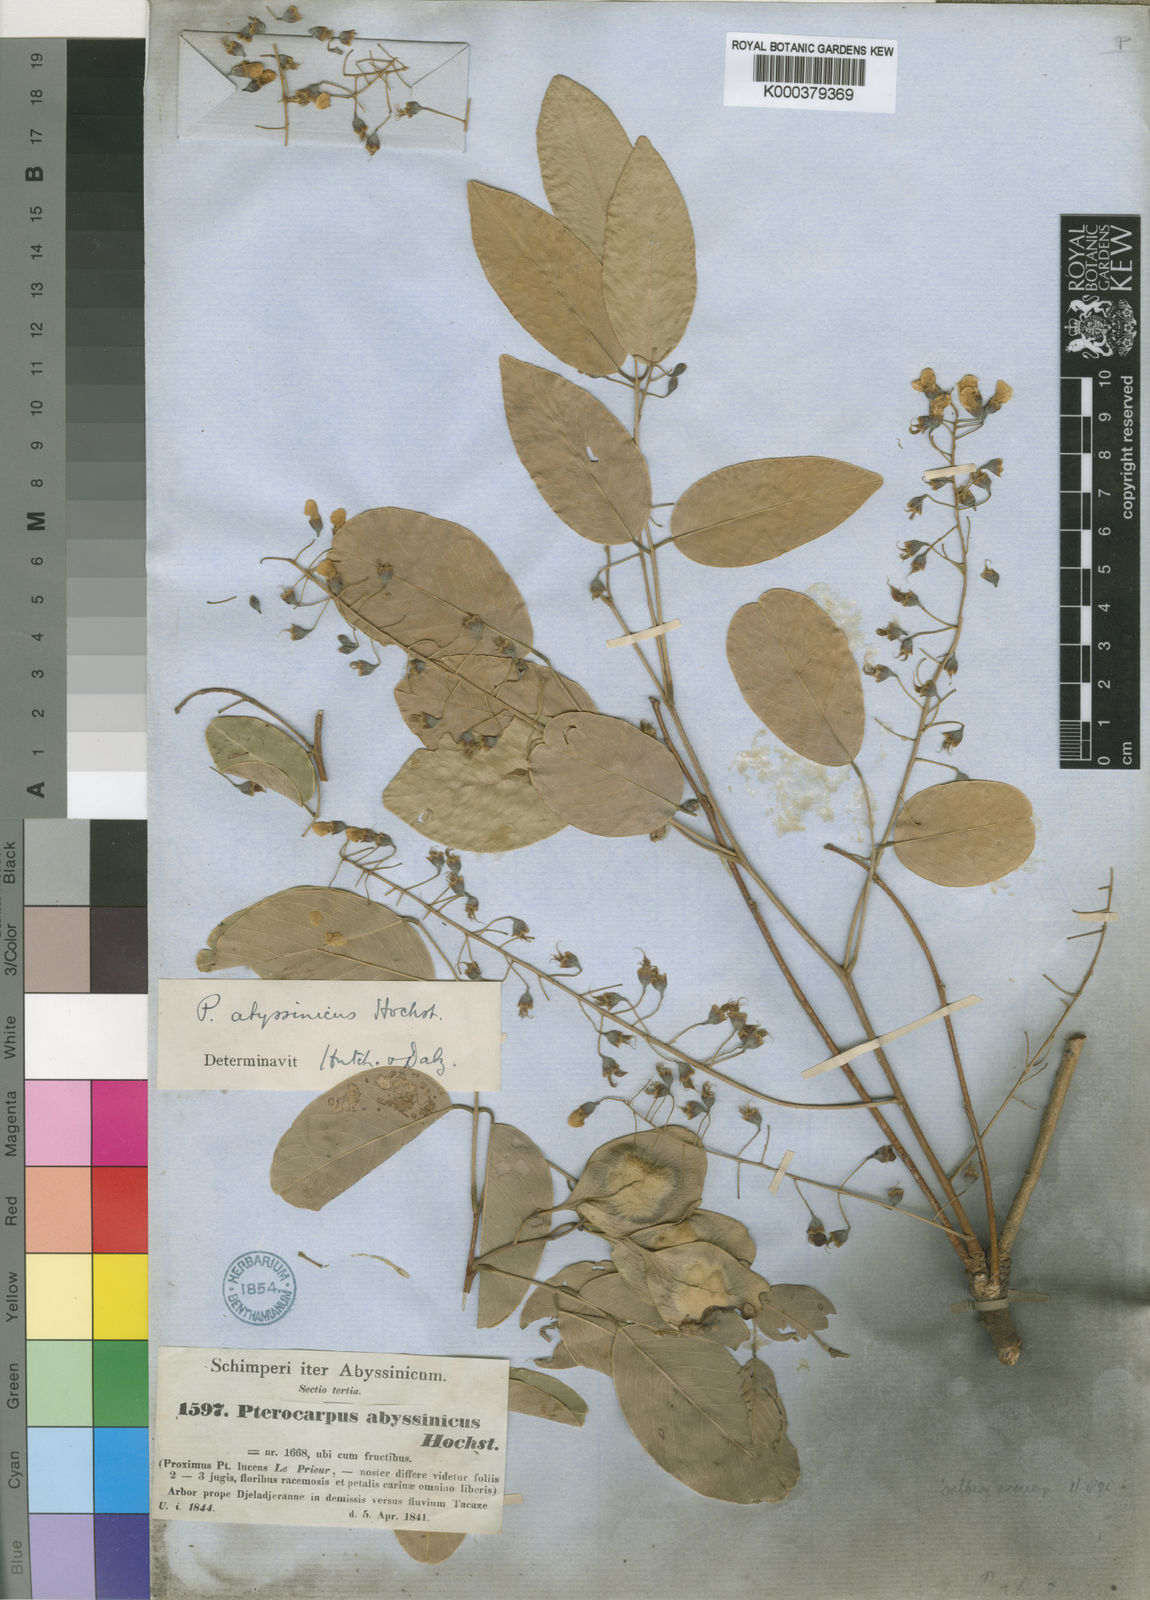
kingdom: Plantae
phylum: Tracheophyta
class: Magnoliopsida
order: Fabales
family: Fabaceae
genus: Pterocarpus
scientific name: Pterocarpus
